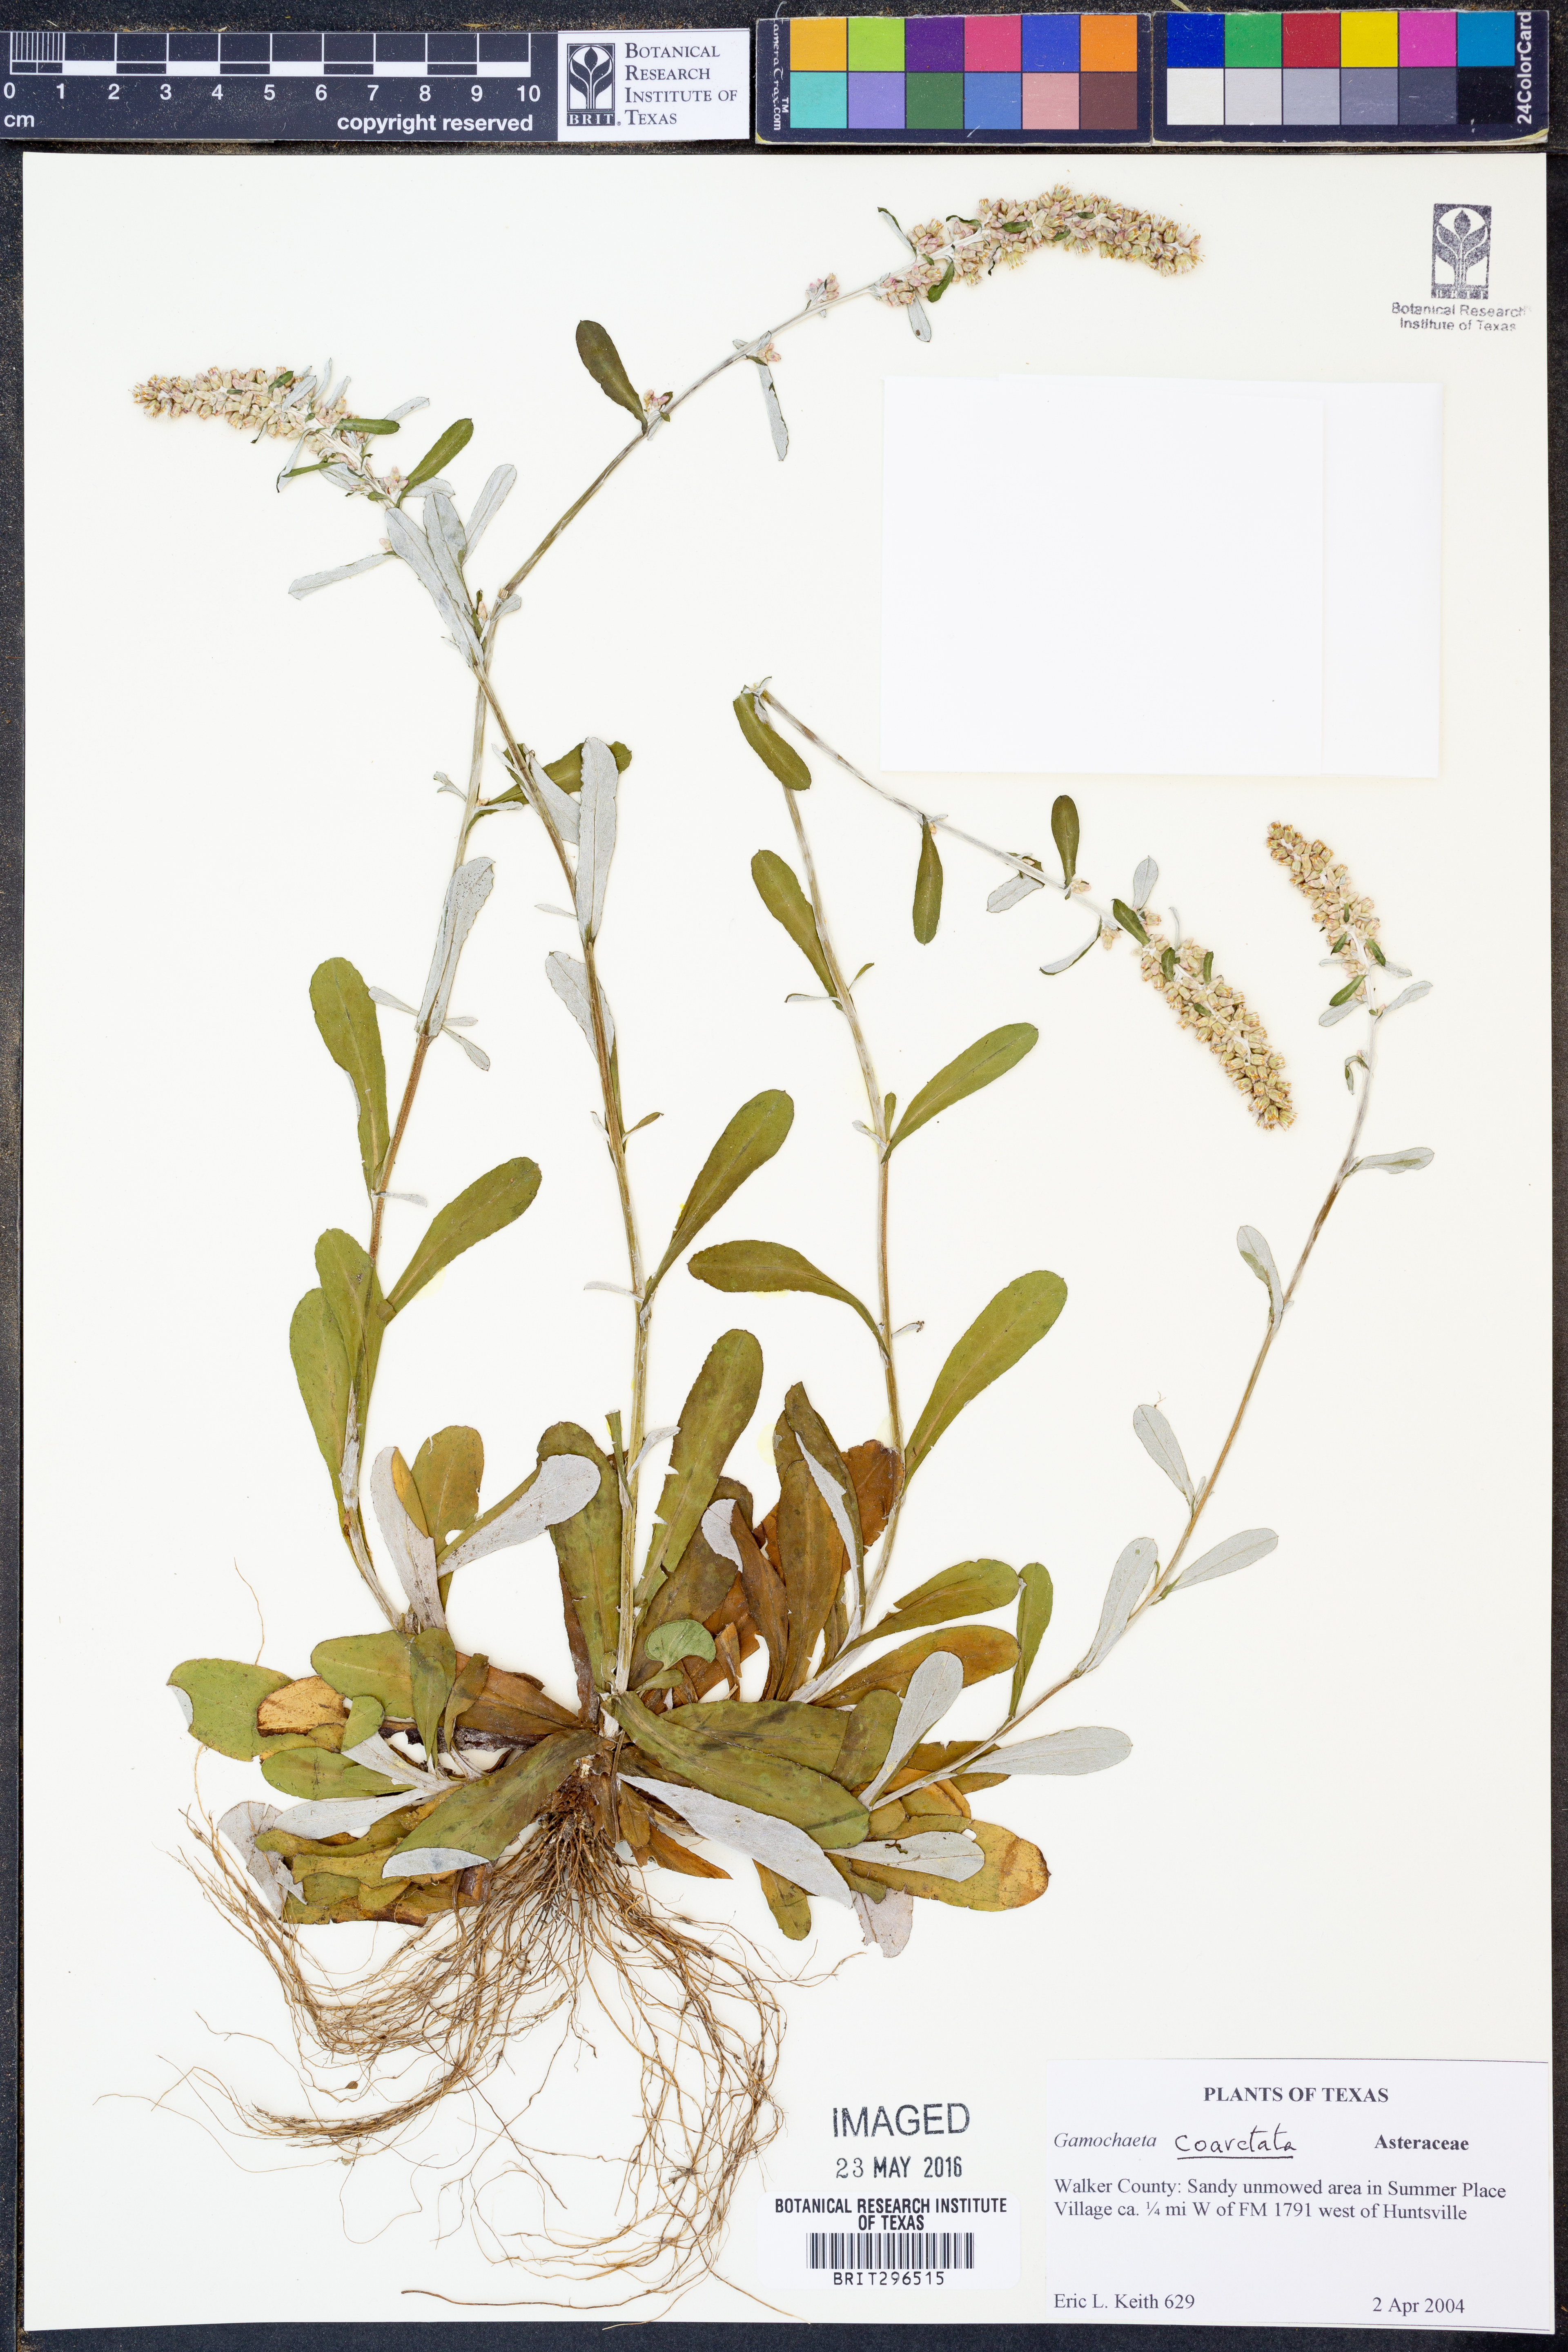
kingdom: Plantae
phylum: Tracheophyta
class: Magnoliopsida
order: Asterales
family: Asteraceae
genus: Gamochaeta
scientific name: Gamochaeta americana
